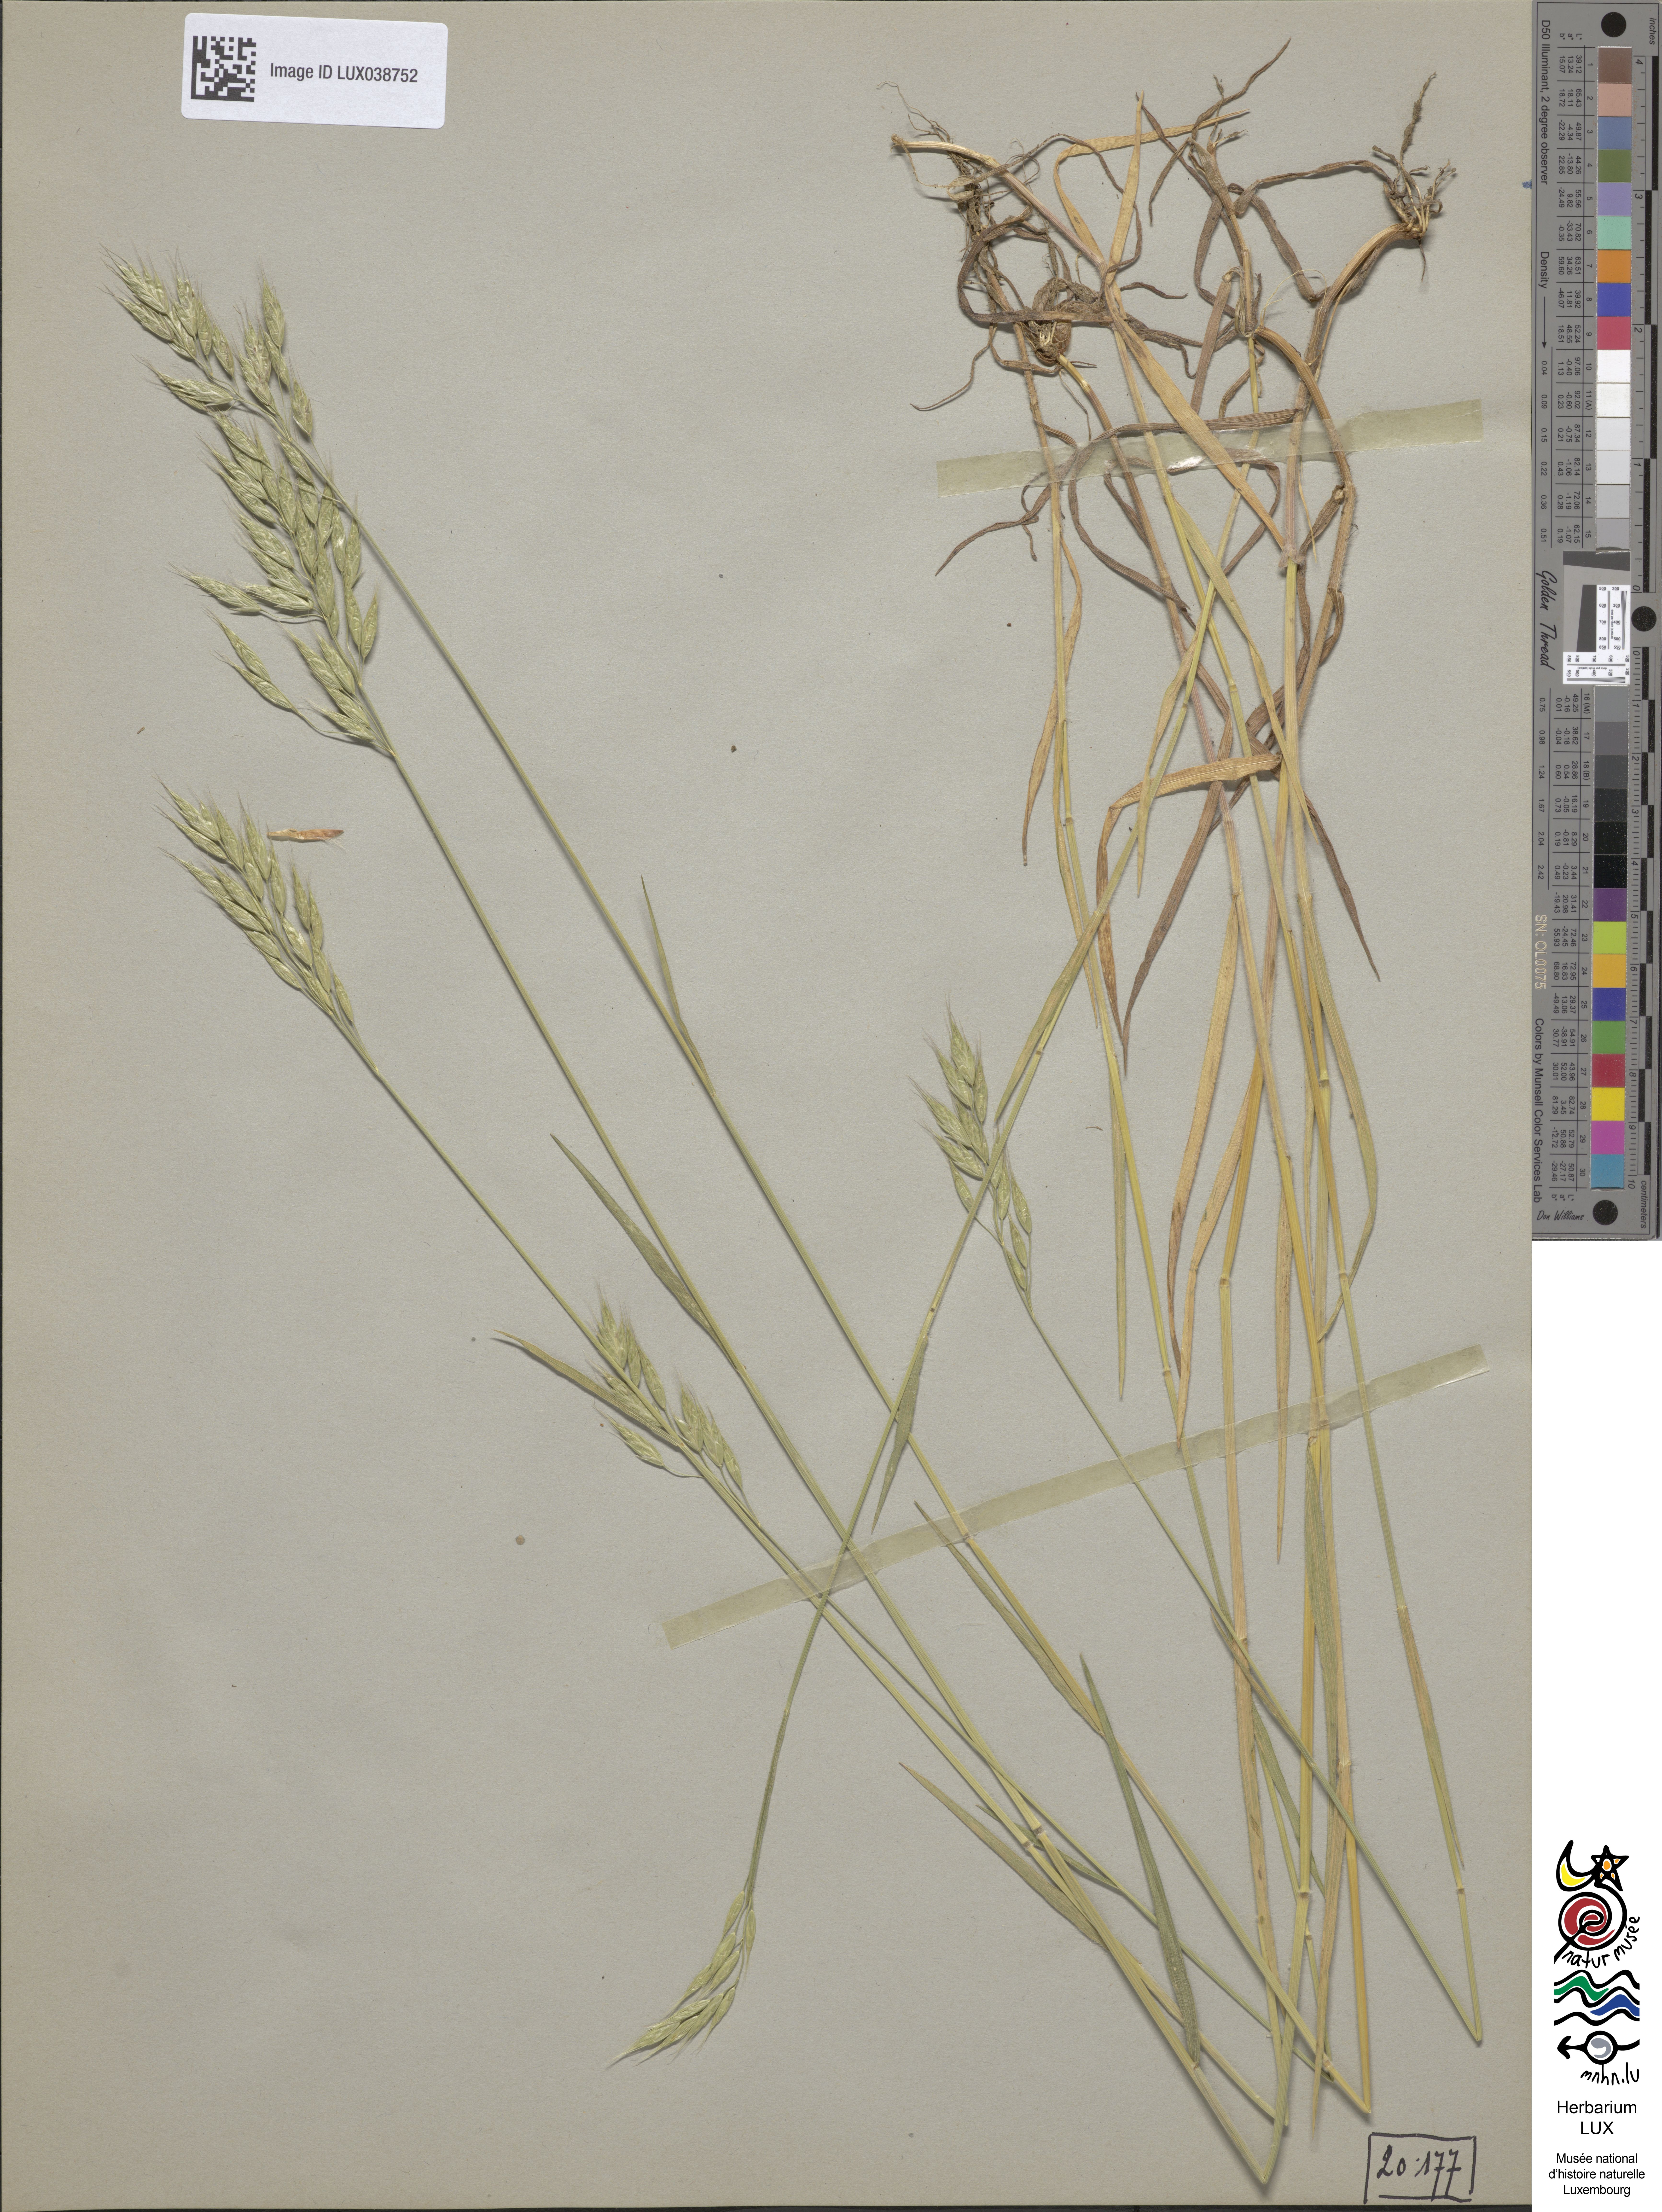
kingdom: Plantae
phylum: Tracheophyta
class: Liliopsida
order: Poales
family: Poaceae
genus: Bromus
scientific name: Bromus hordeaceus
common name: Soft brome
